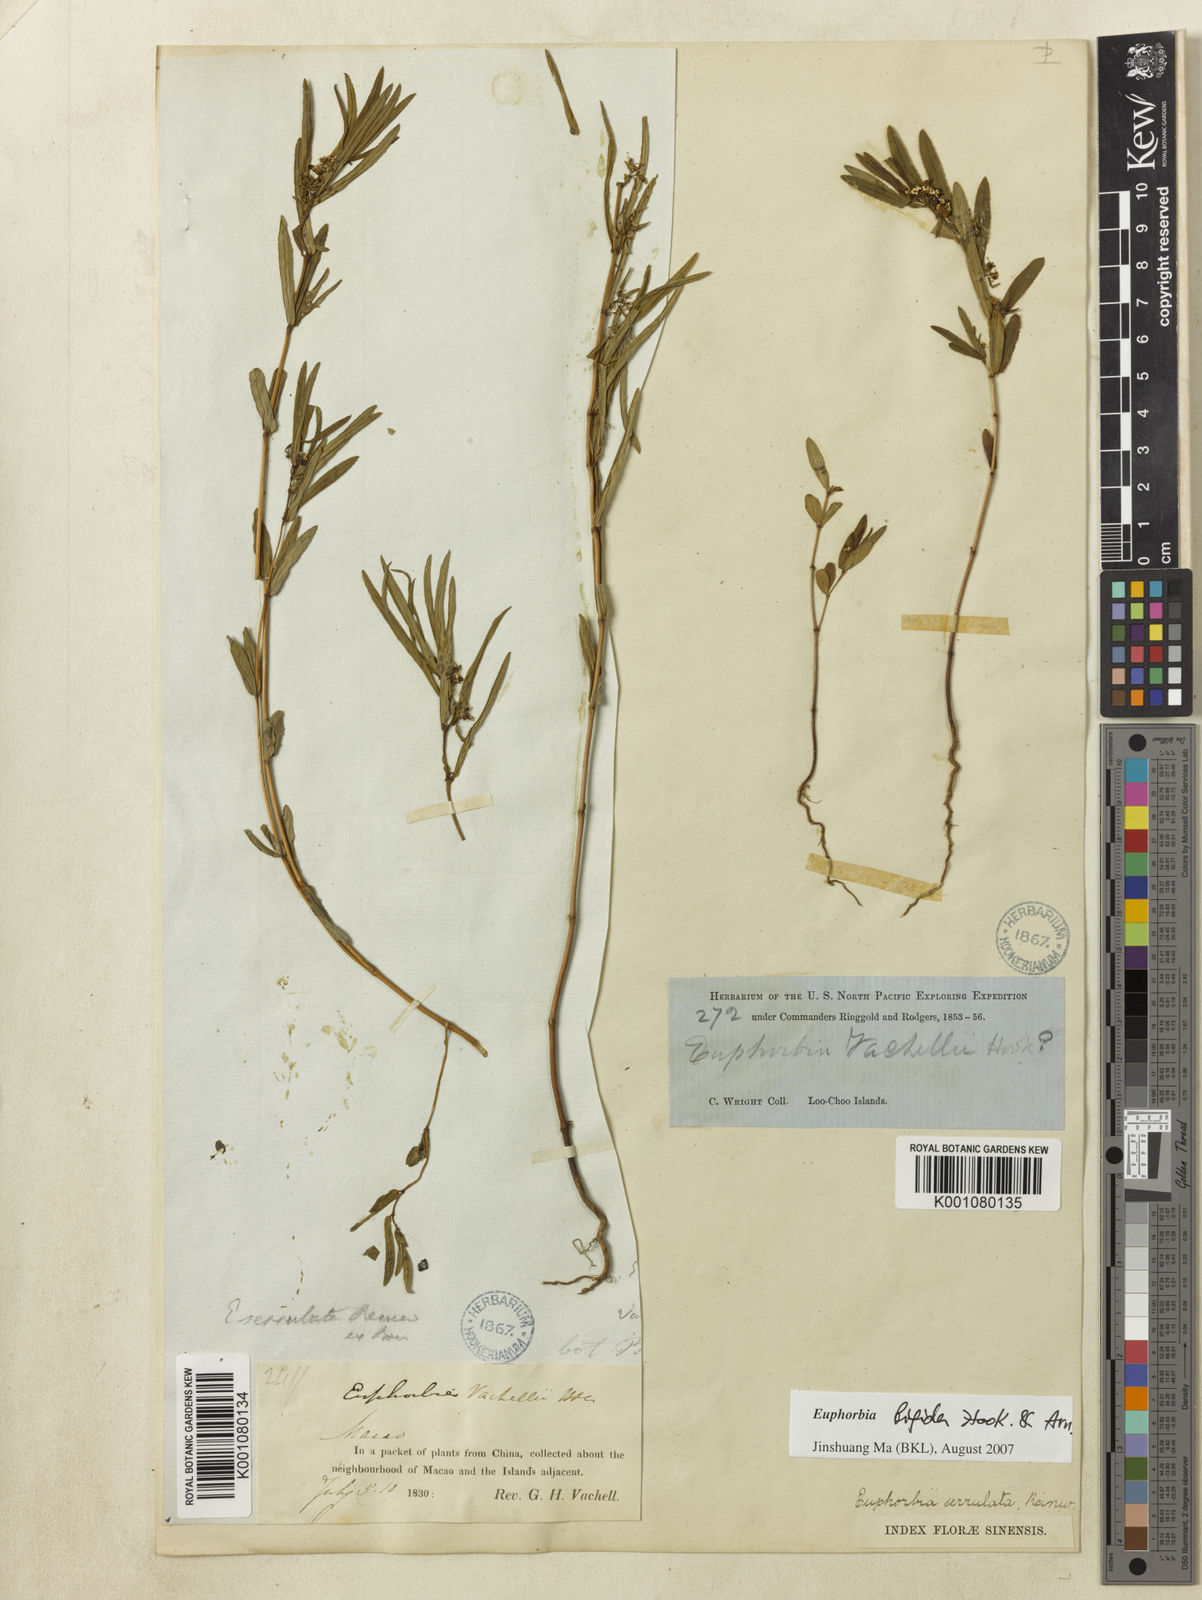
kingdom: Plantae
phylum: Tracheophyta
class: Magnoliopsida
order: Malpighiales
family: Euphorbiaceae
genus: Euphorbia
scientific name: Euphorbia bifida
